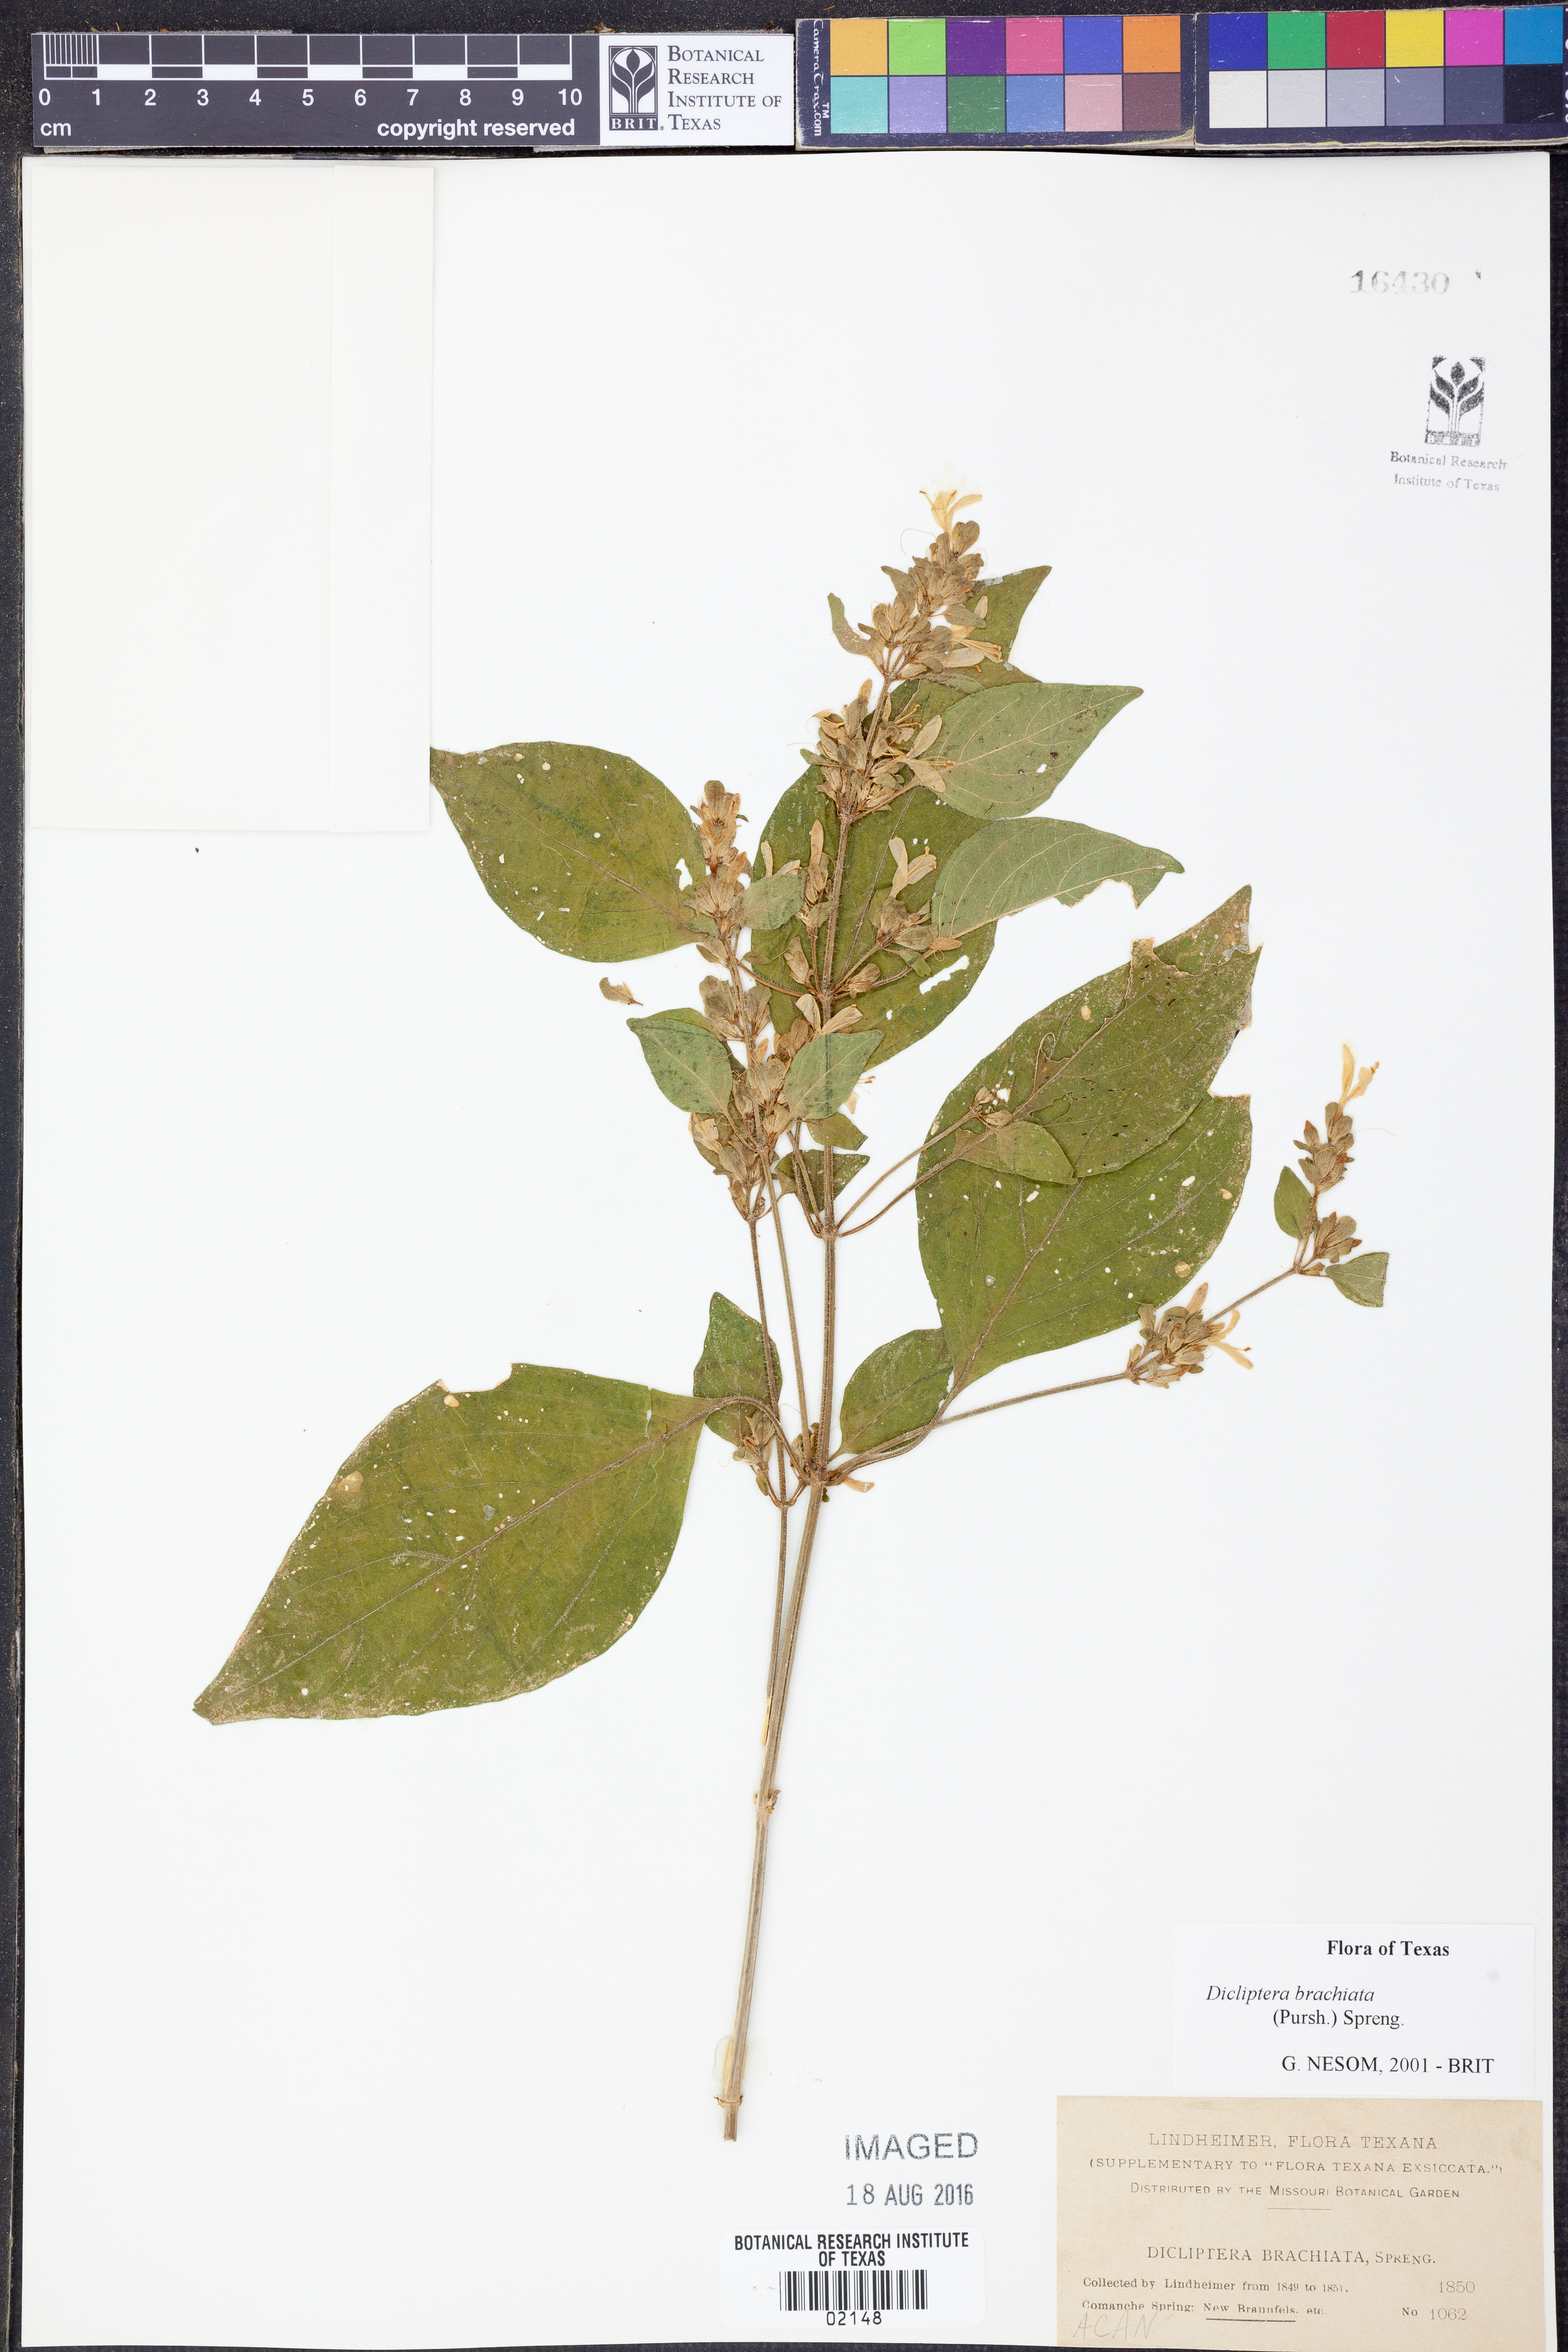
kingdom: Plantae
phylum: Tracheophyta
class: Magnoliopsida
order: Lamiales
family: Acanthaceae
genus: Dicliptera
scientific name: Dicliptera brachiata
